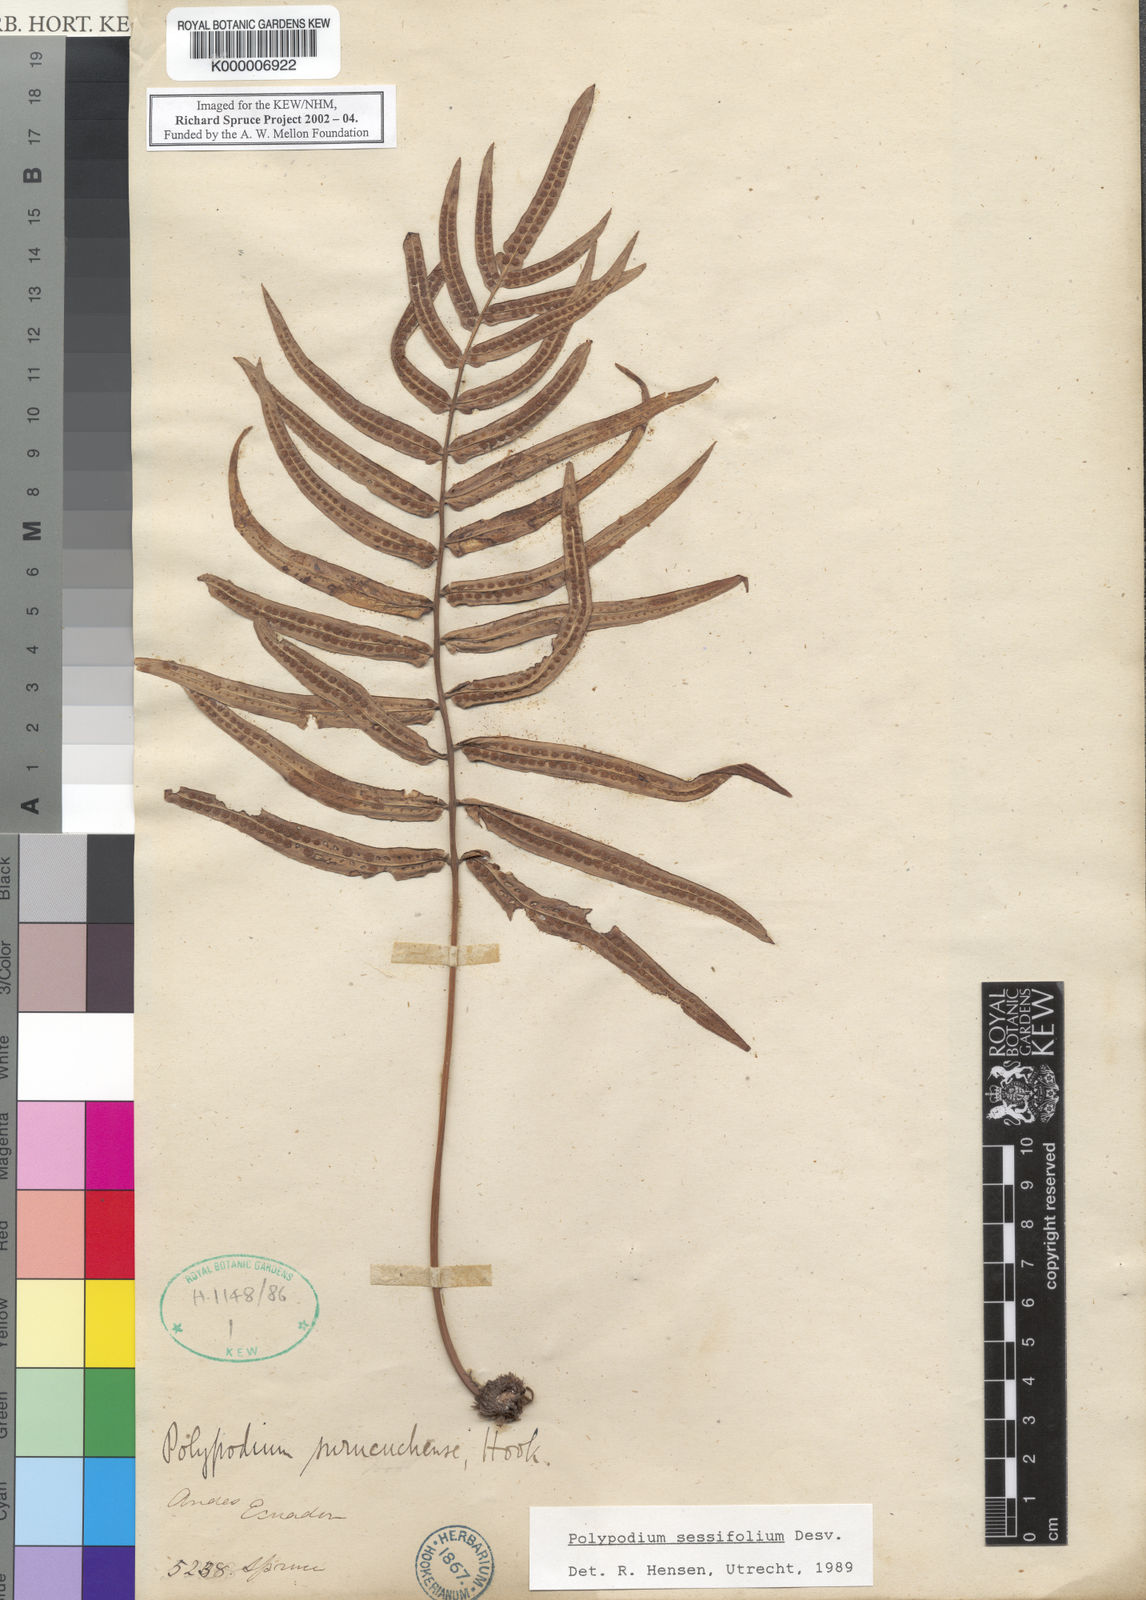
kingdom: Plantae
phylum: Tracheophyta
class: Polypodiopsida
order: Polypodiales
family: Polypodiaceae
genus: Polypodium
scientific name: Polypodium
